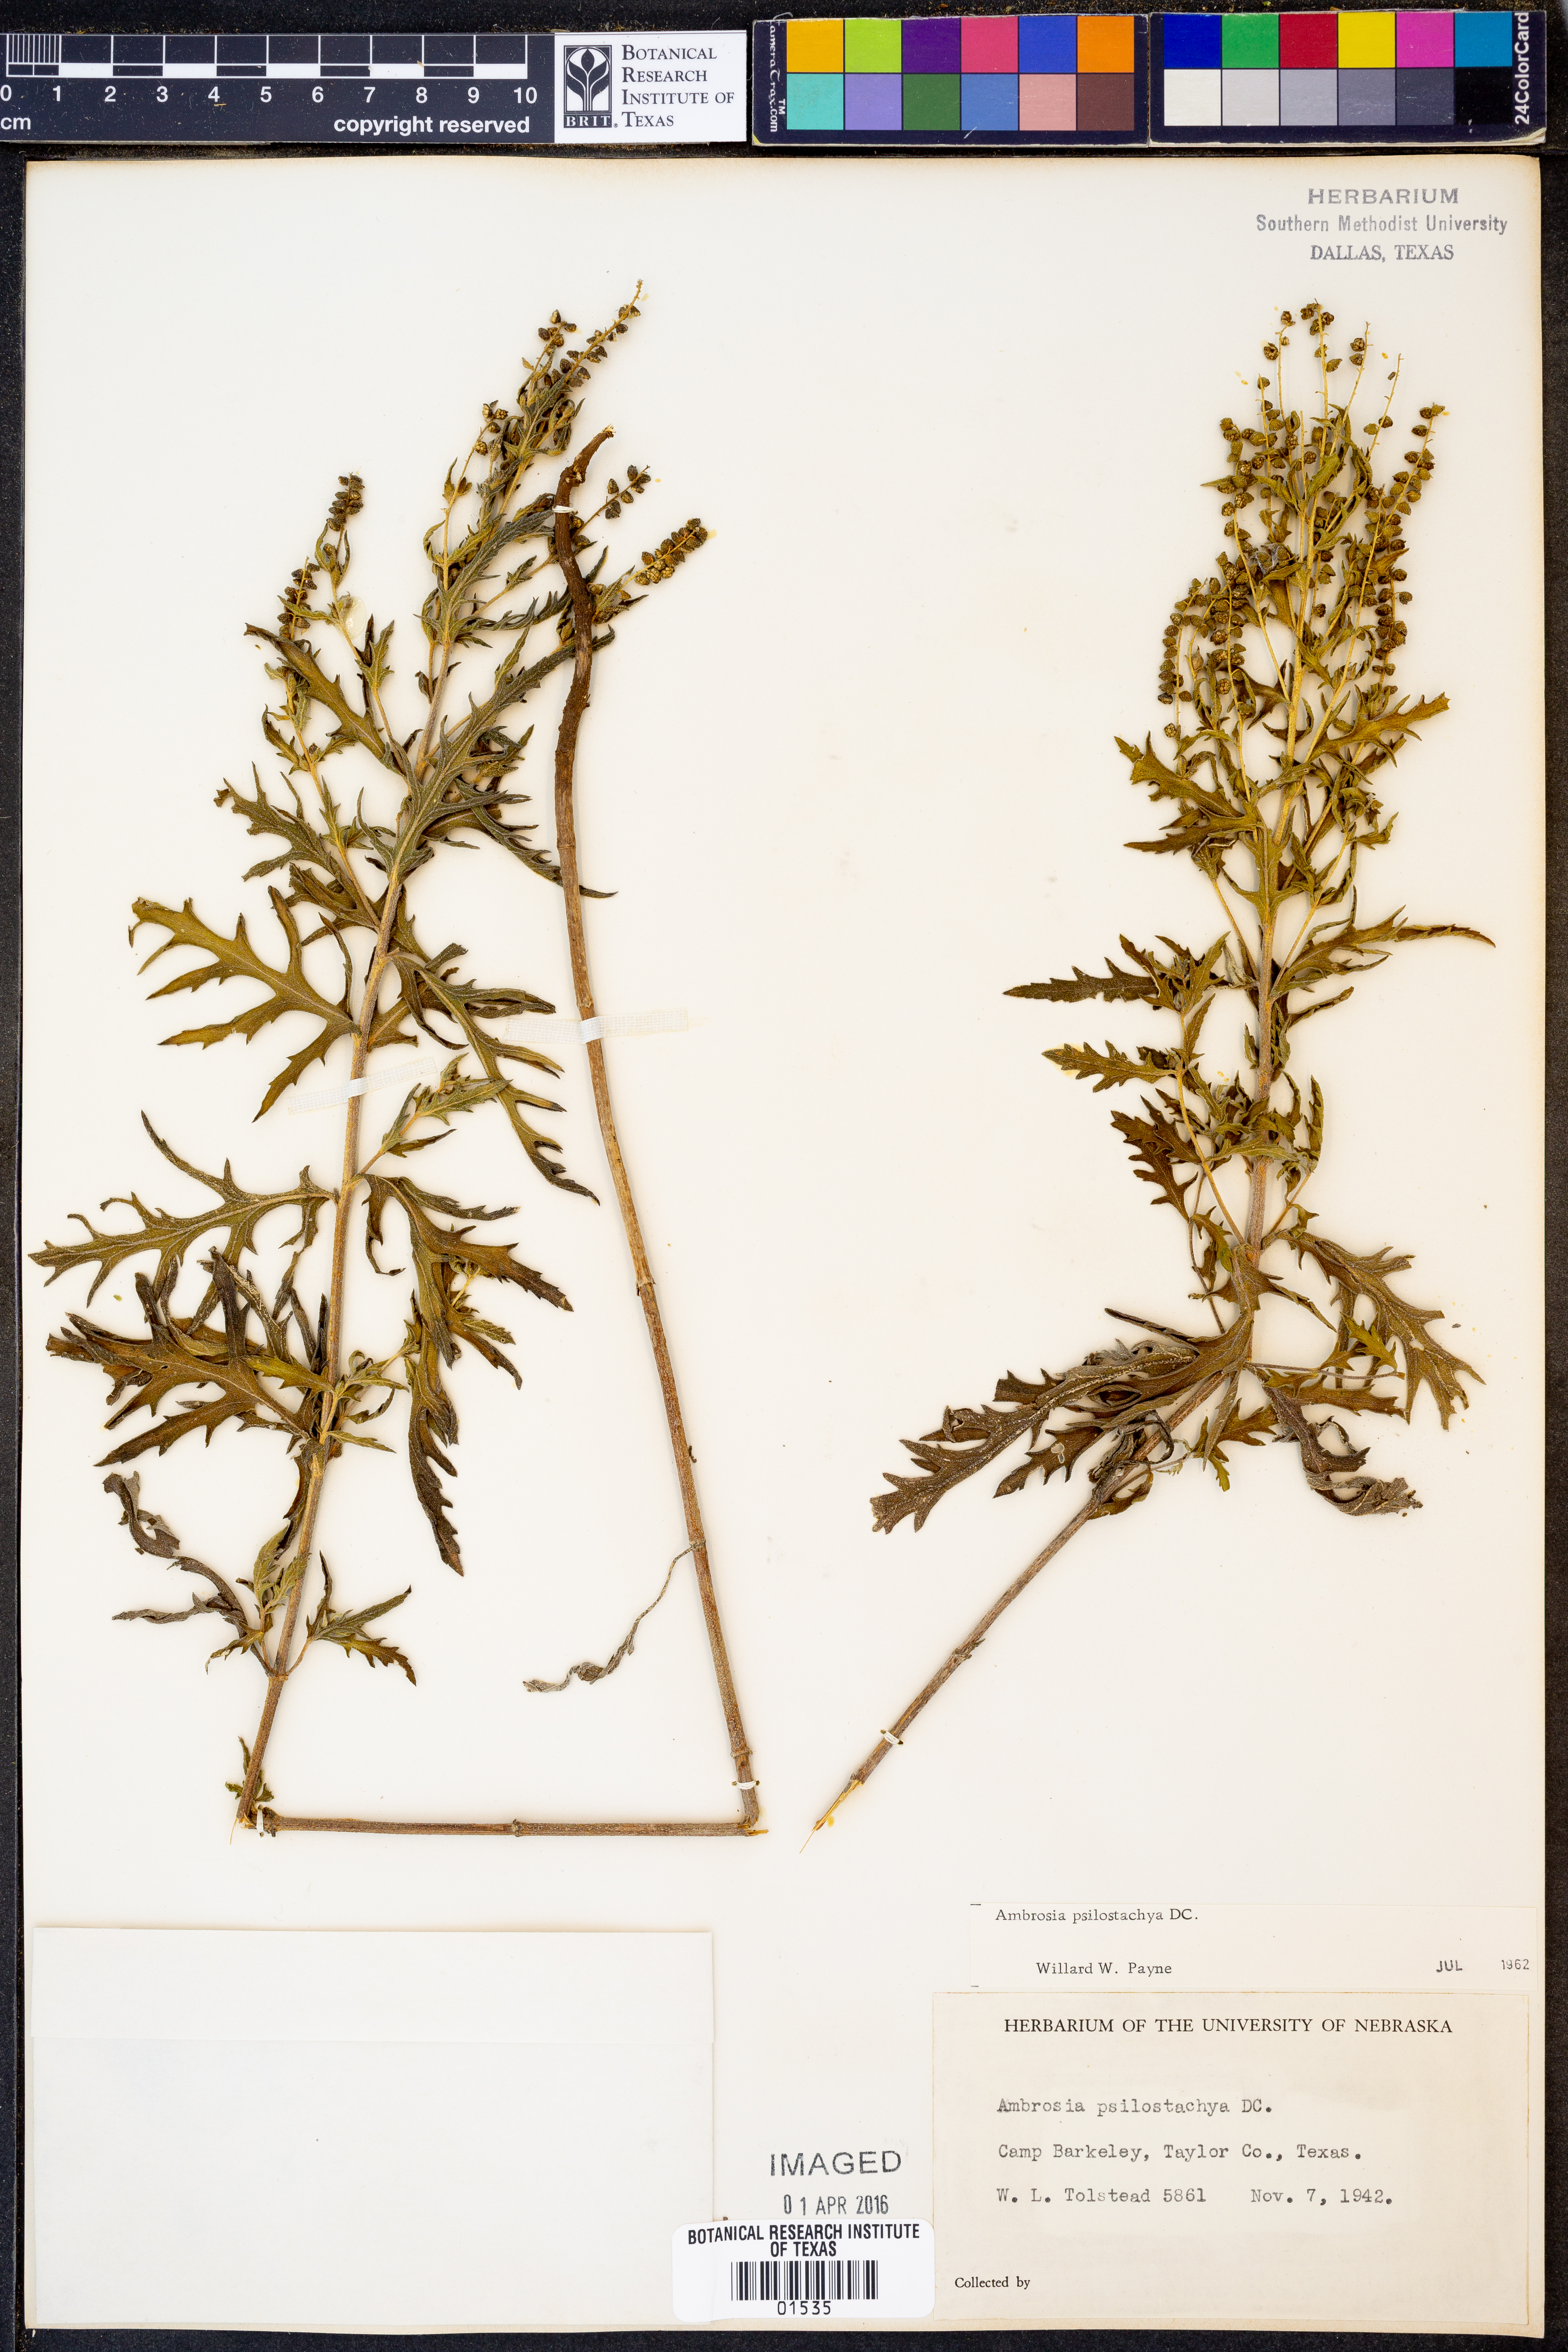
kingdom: Plantae
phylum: Tracheophyta
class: Magnoliopsida
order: Asterales
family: Asteraceae
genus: Ambrosia
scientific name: Ambrosia psilostachya
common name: Perennial ragweed
